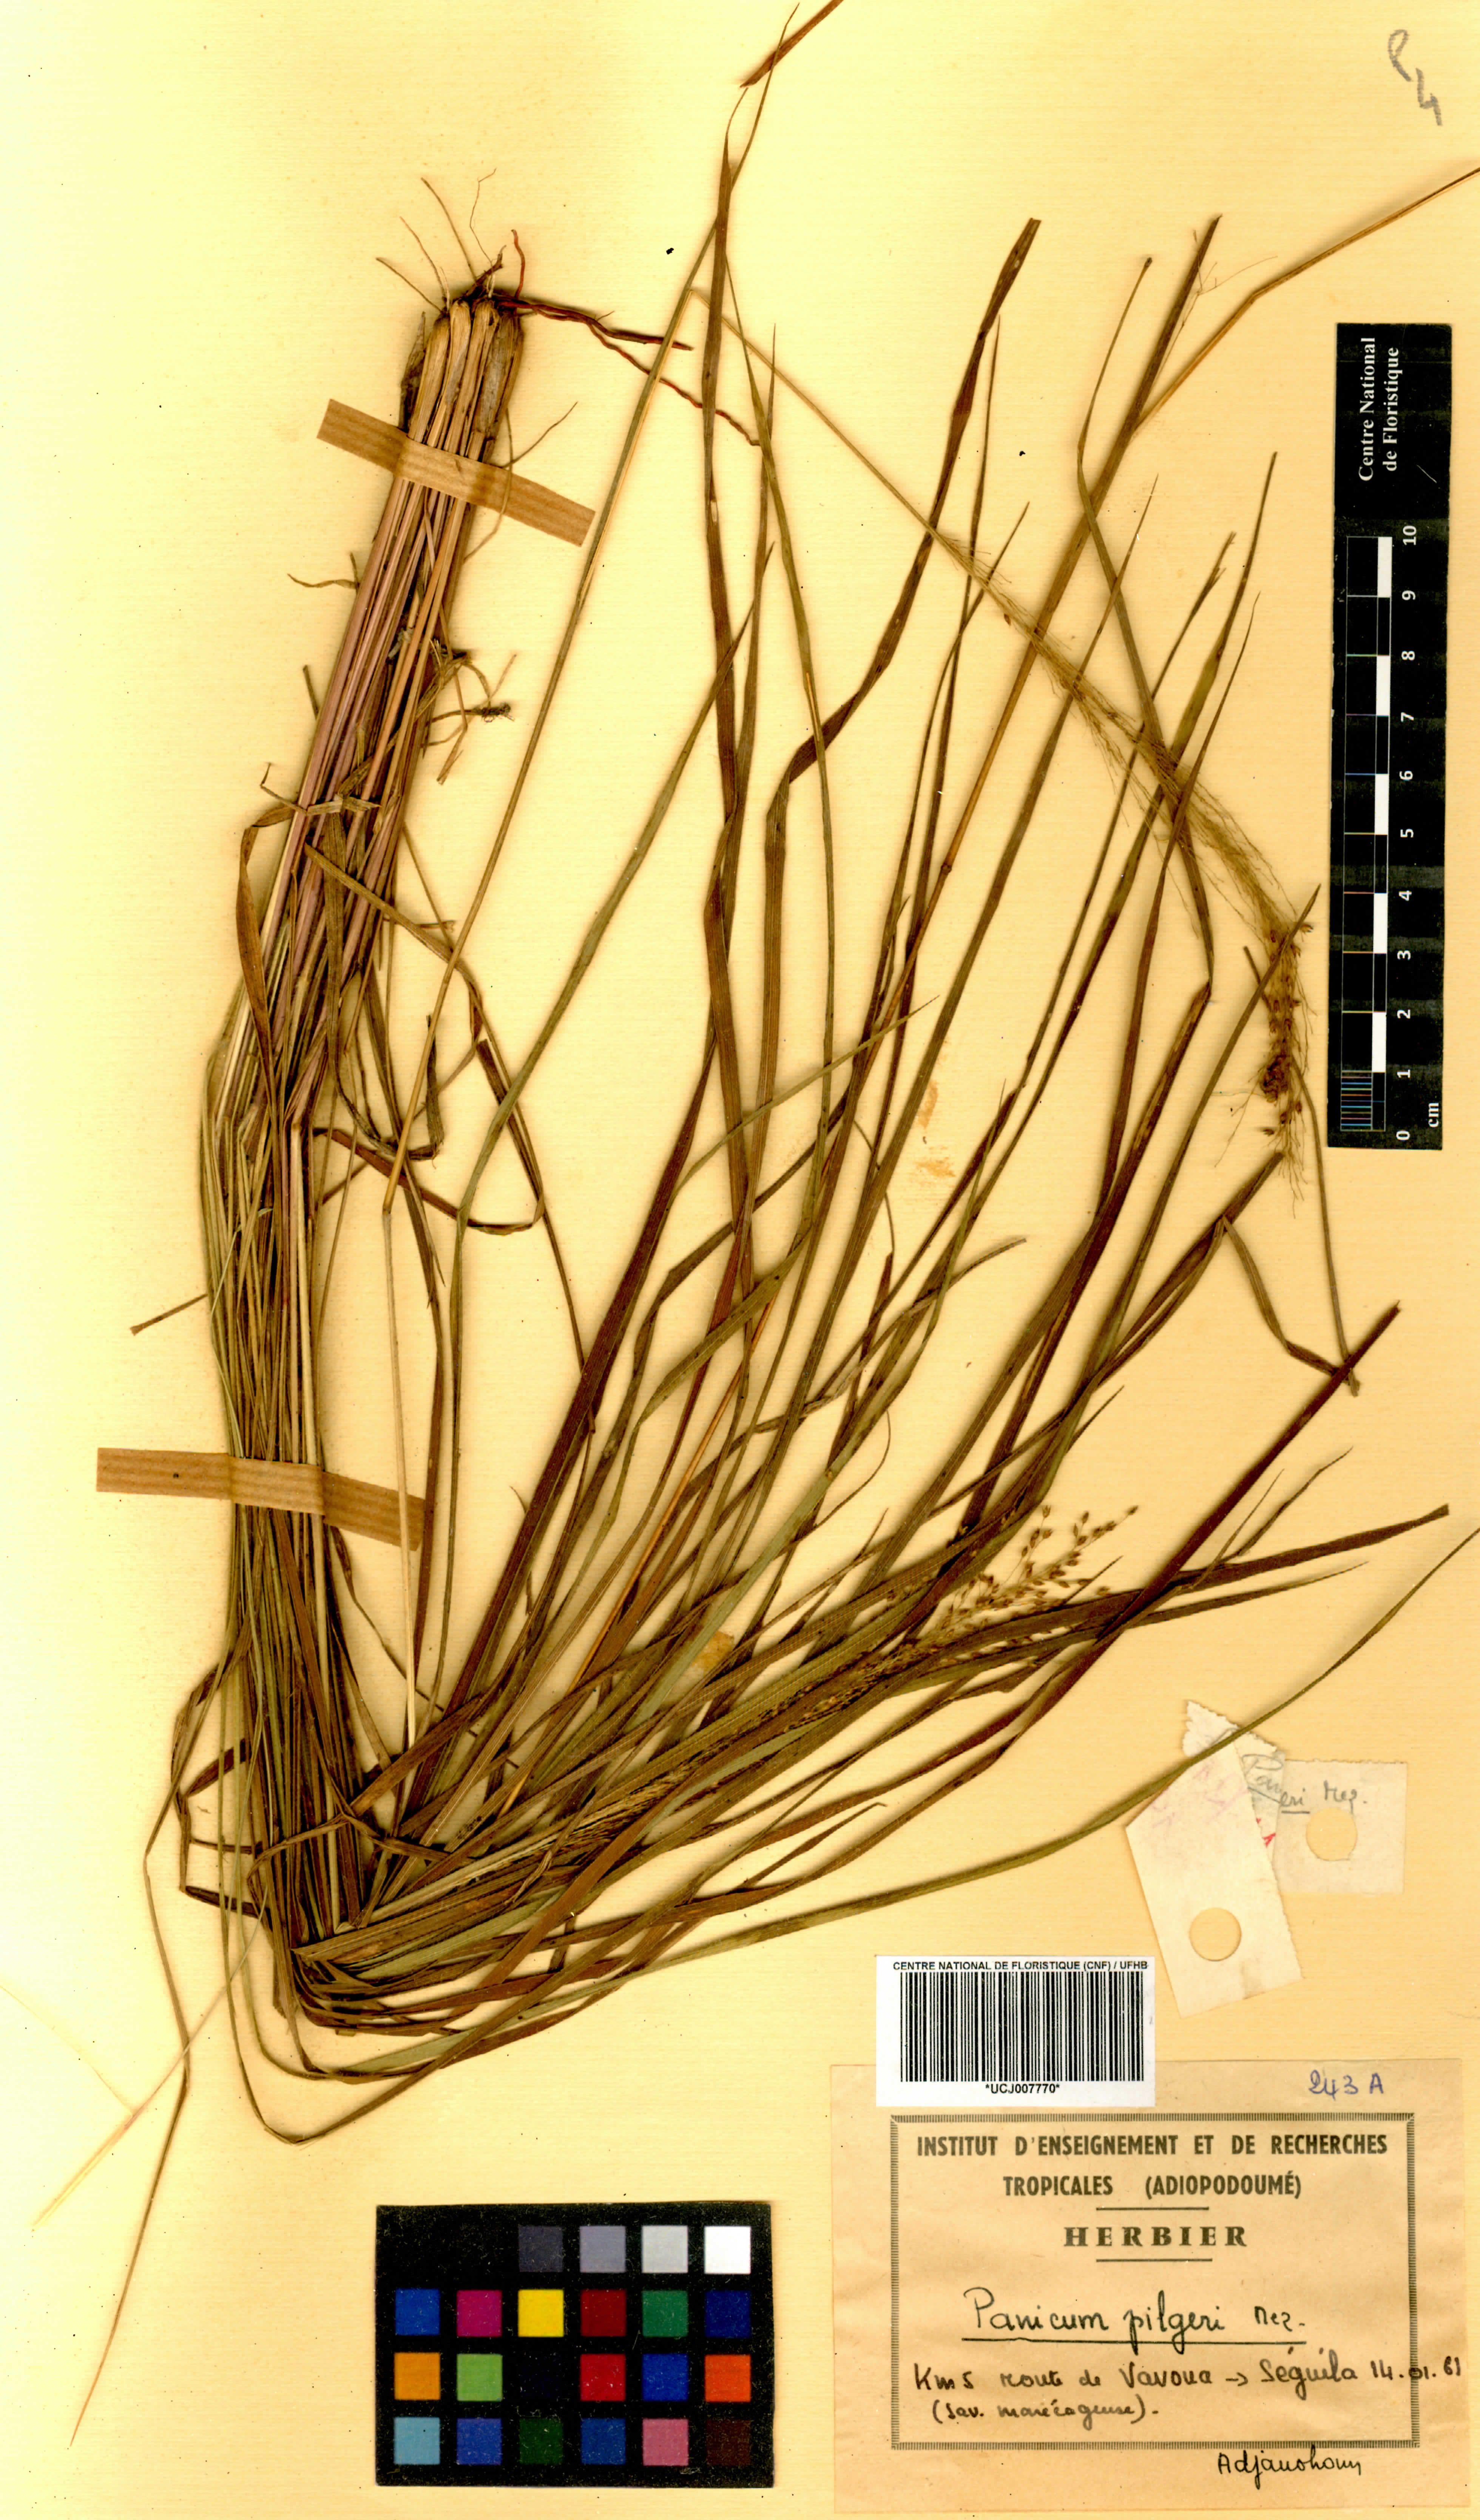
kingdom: Plantae
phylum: Tracheophyta
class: Liliopsida
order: Poales
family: Poaceae
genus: Panicum
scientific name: Panicum pilgeri
